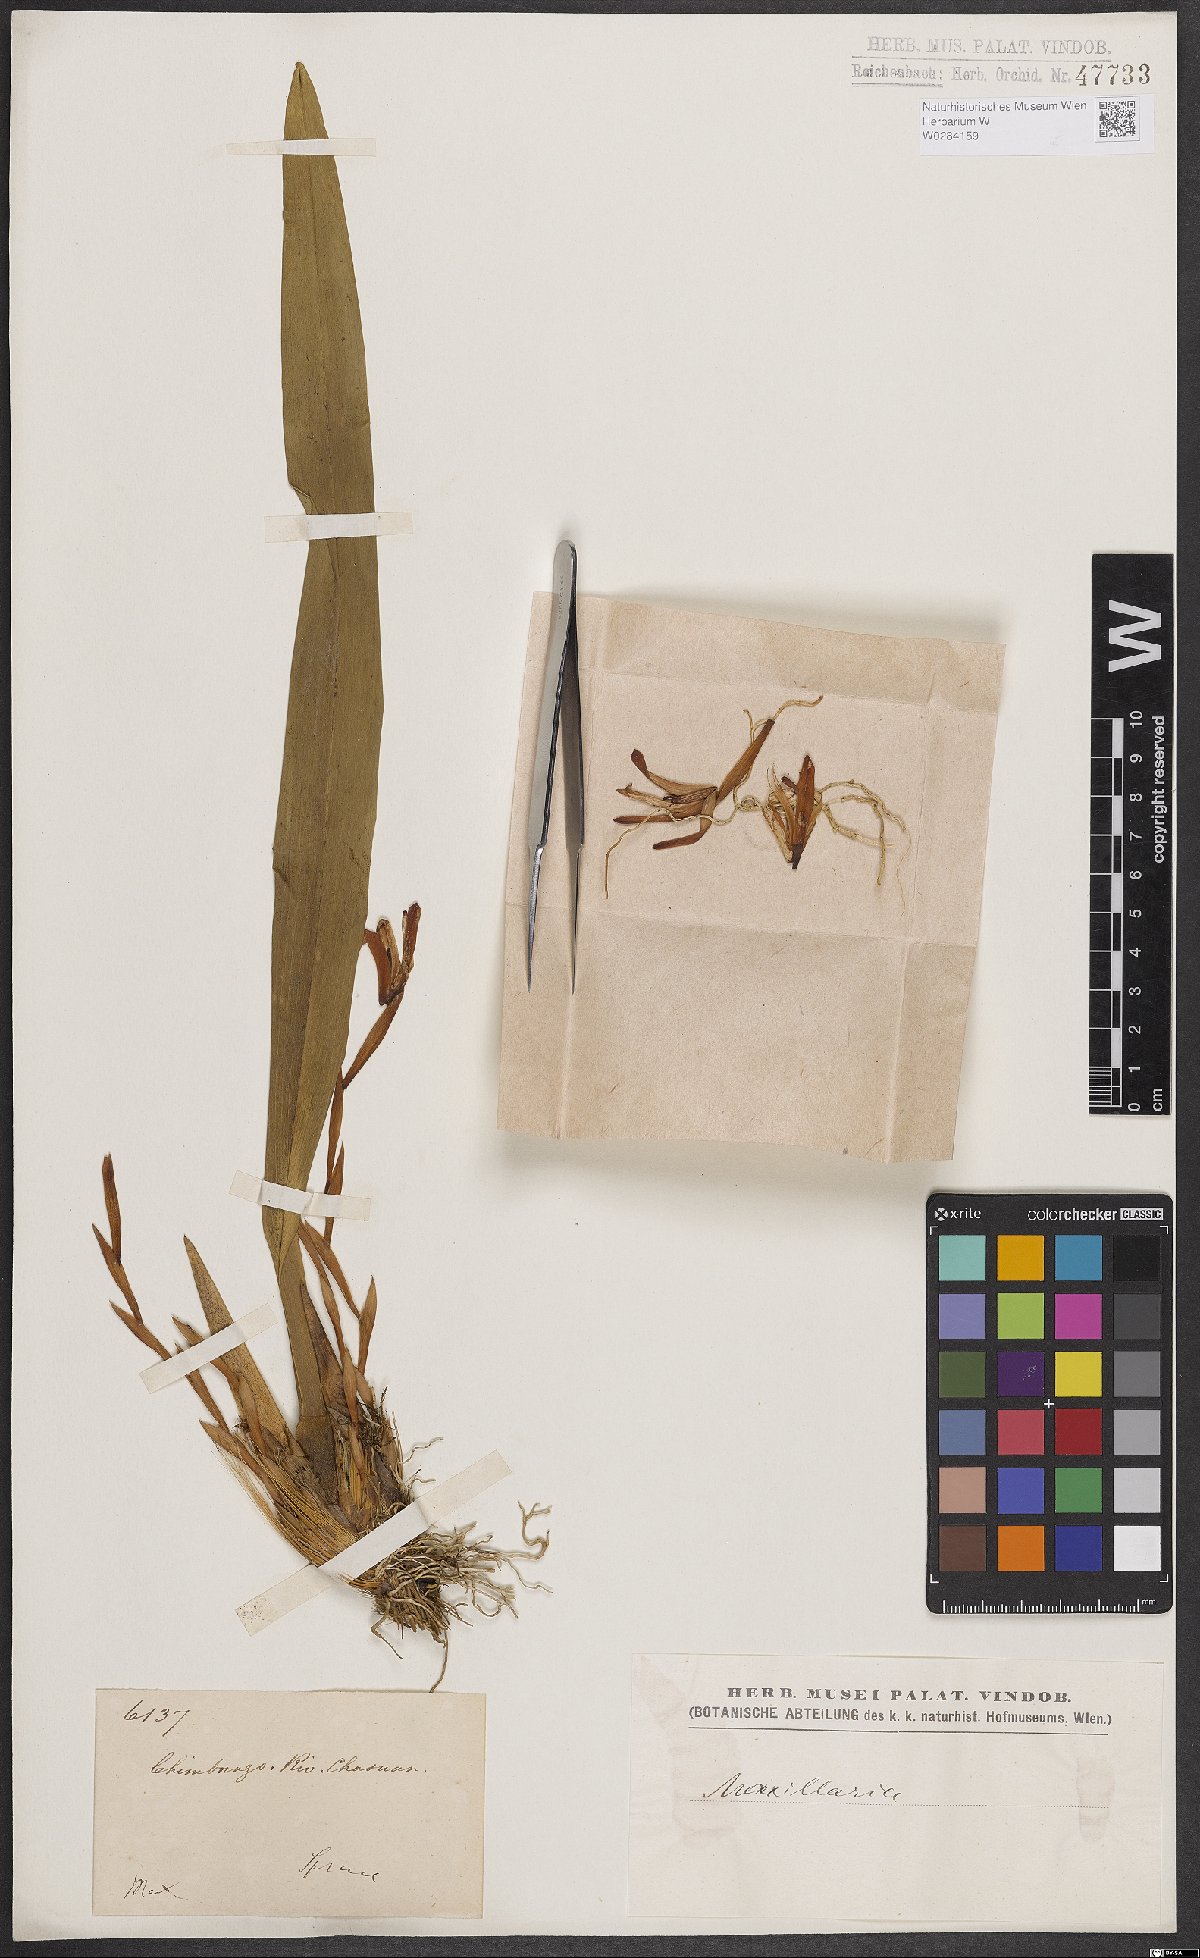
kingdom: Plantae
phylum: Tracheophyta
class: Liliopsida
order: Asparagales
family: Orchidaceae
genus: Maxillaria
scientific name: Maxillaria porrecta
